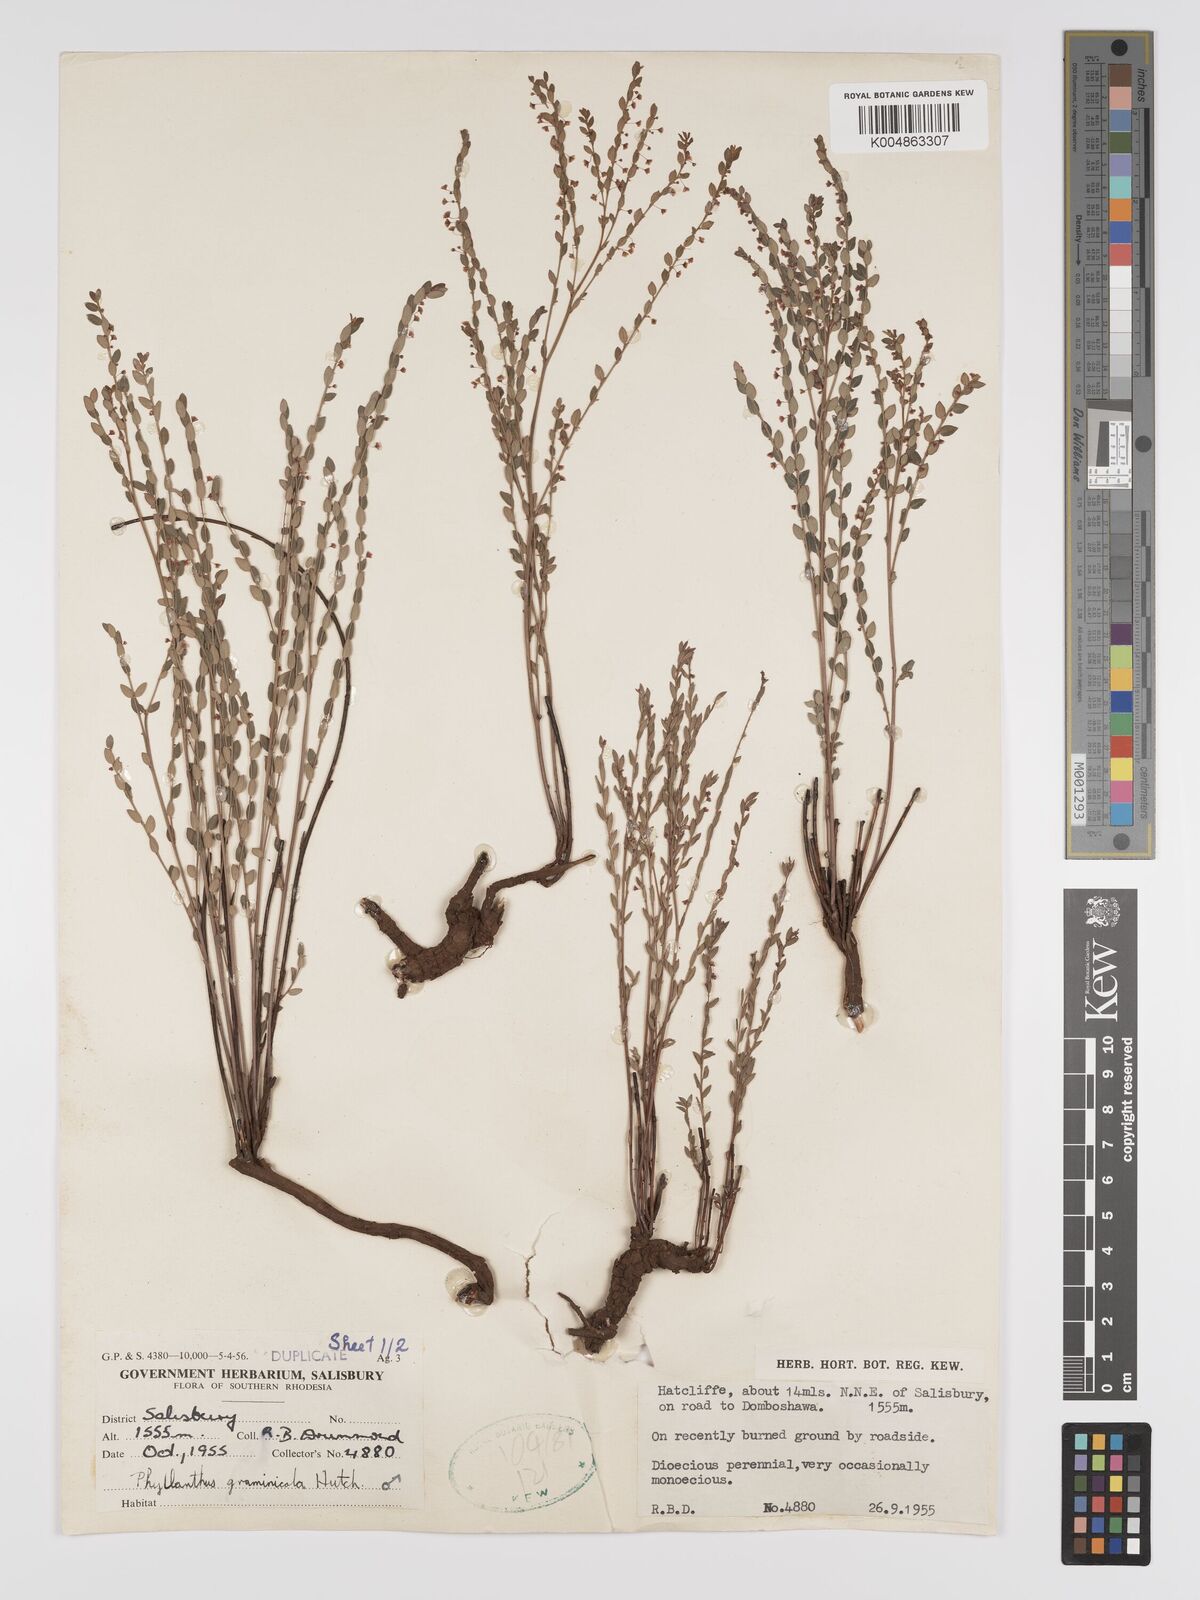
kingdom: Plantae
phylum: Tracheophyta
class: Magnoliopsida
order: Malpighiales
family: Phyllanthaceae
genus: Phyllanthus
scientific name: Phyllanthus graminicola
